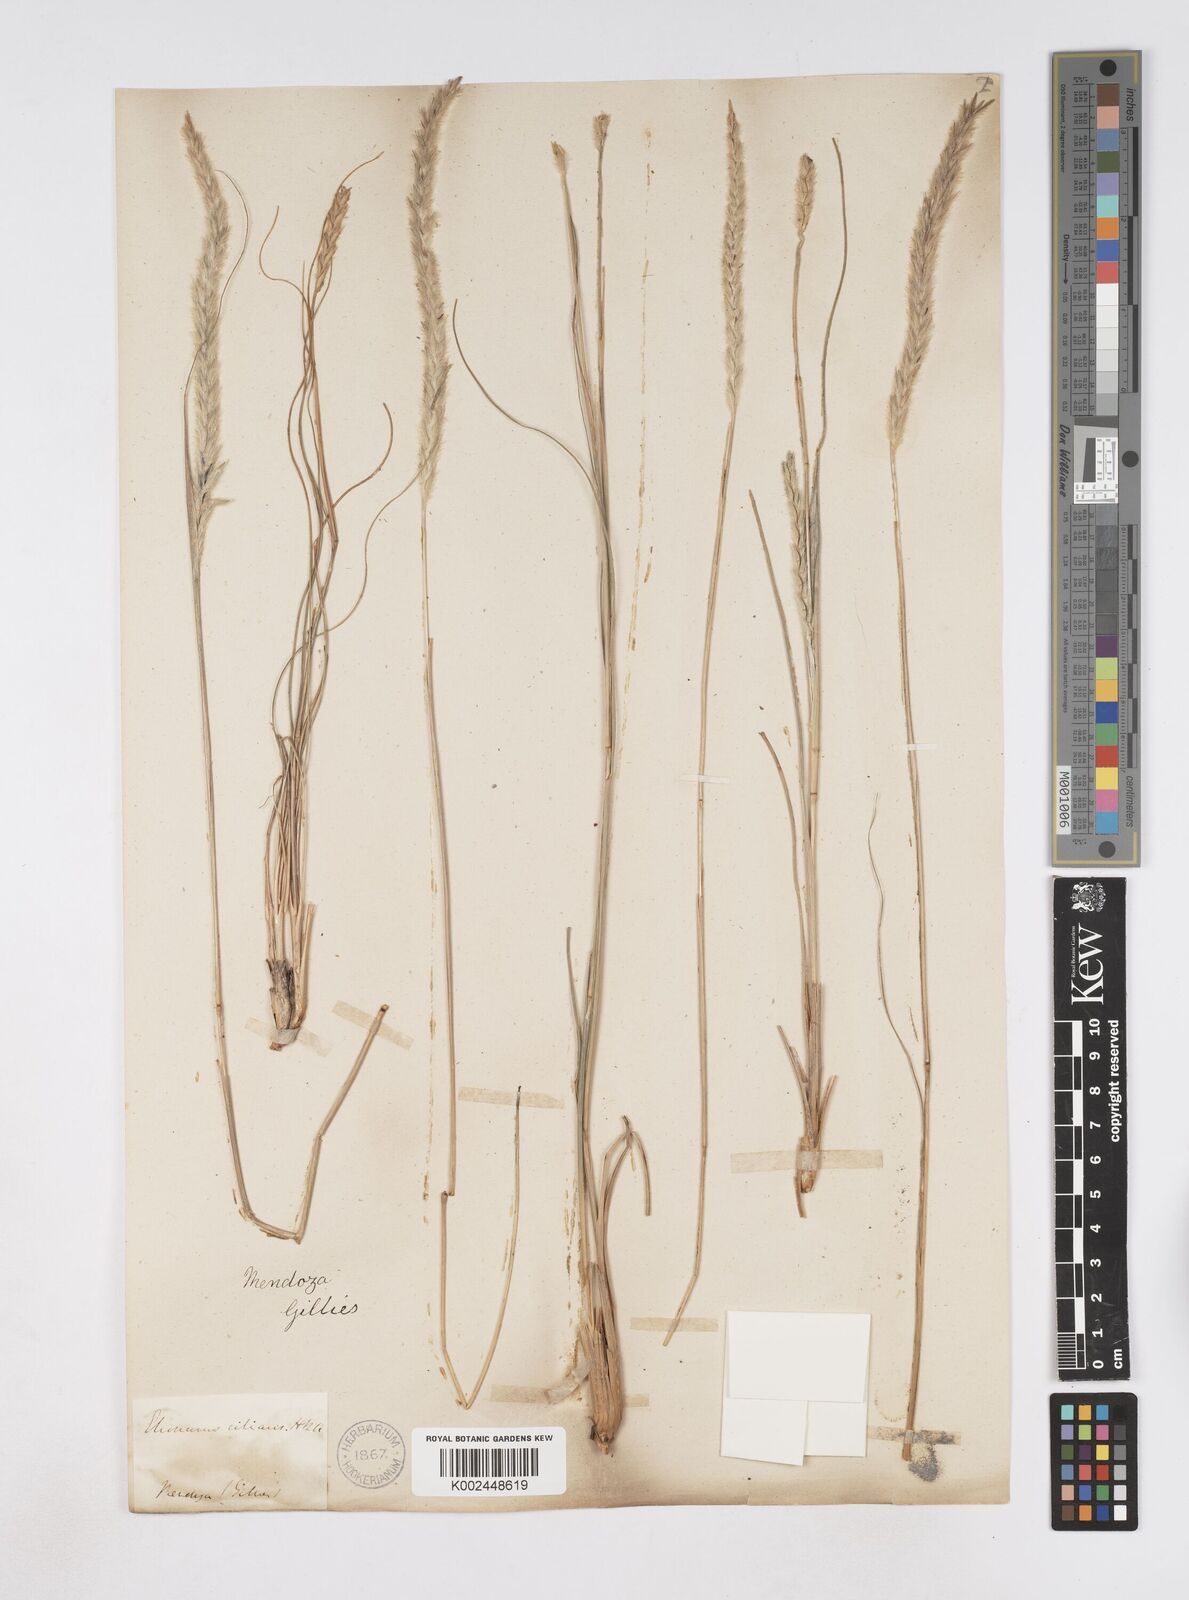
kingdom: Plantae
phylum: Tracheophyta
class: Liliopsida
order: Poales
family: Poaceae
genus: Elionurus
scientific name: Elionurus muticus
